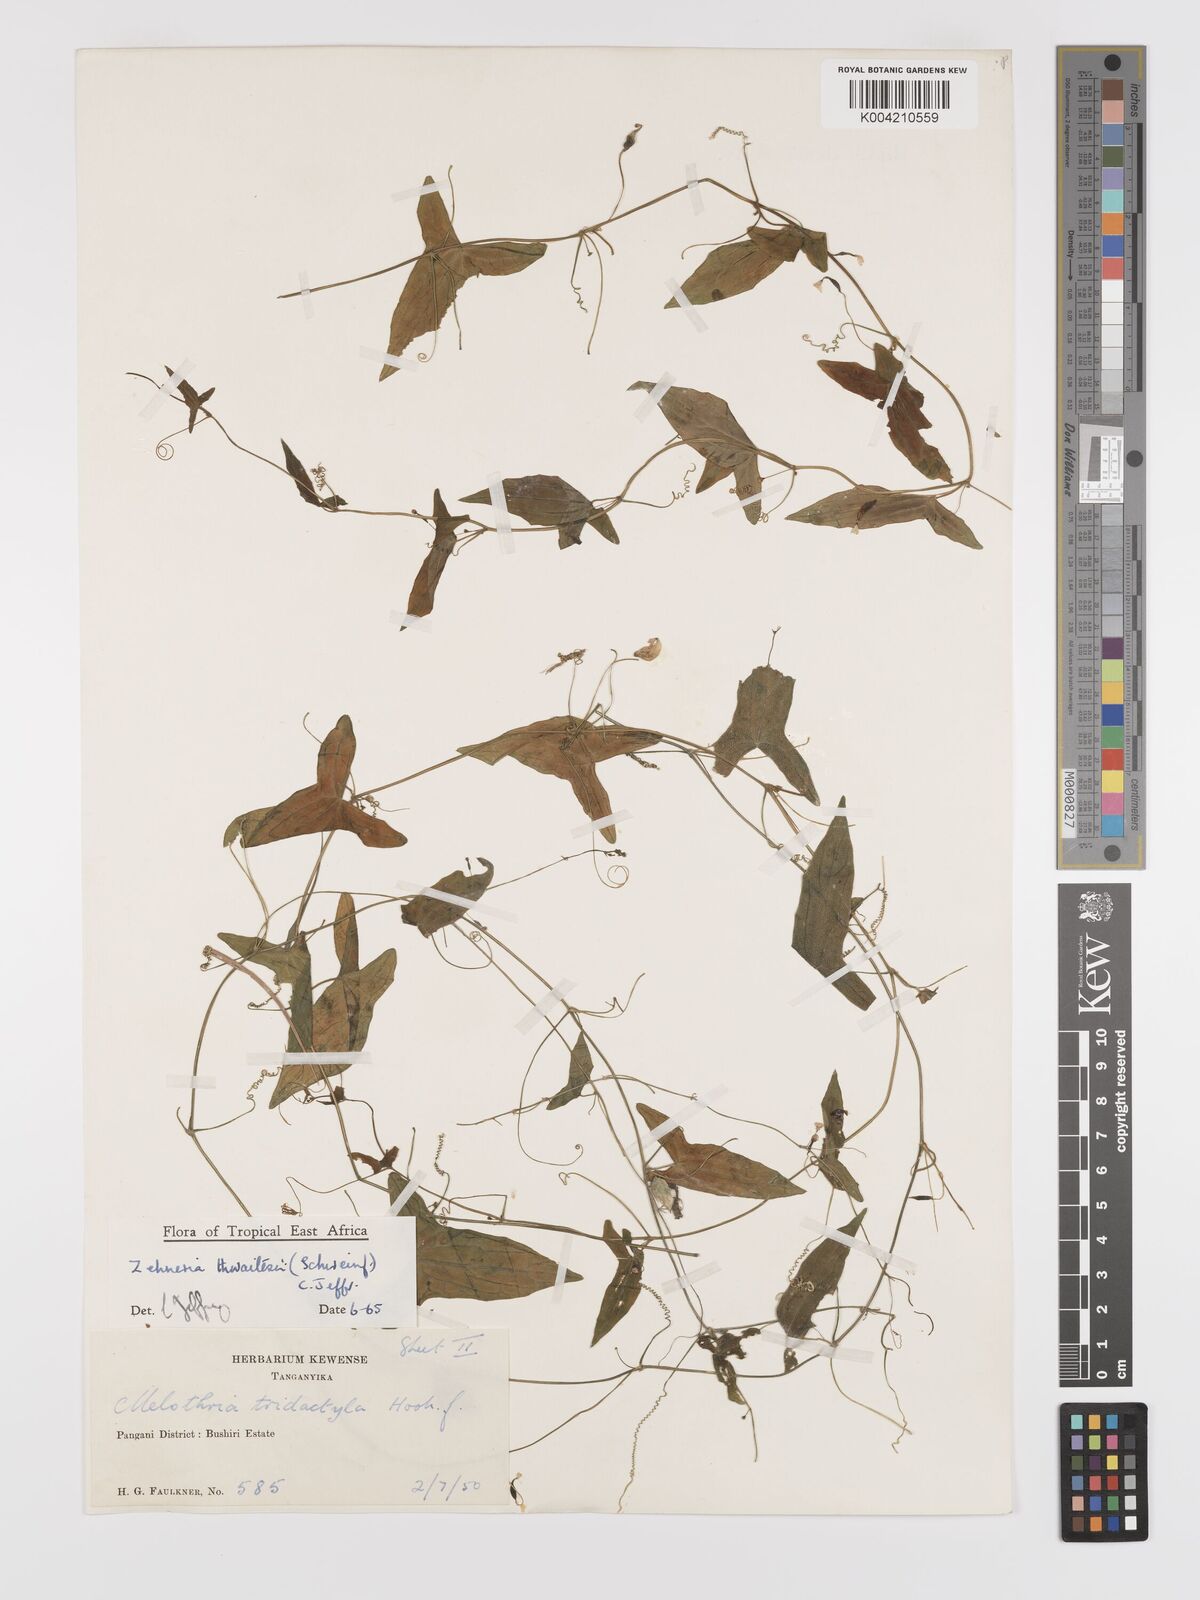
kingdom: Plantae
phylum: Tracheophyta
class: Magnoliopsida
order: Cucurbitales
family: Cucurbitaceae
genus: Zehneria
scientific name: Zehneria thwaitesii
